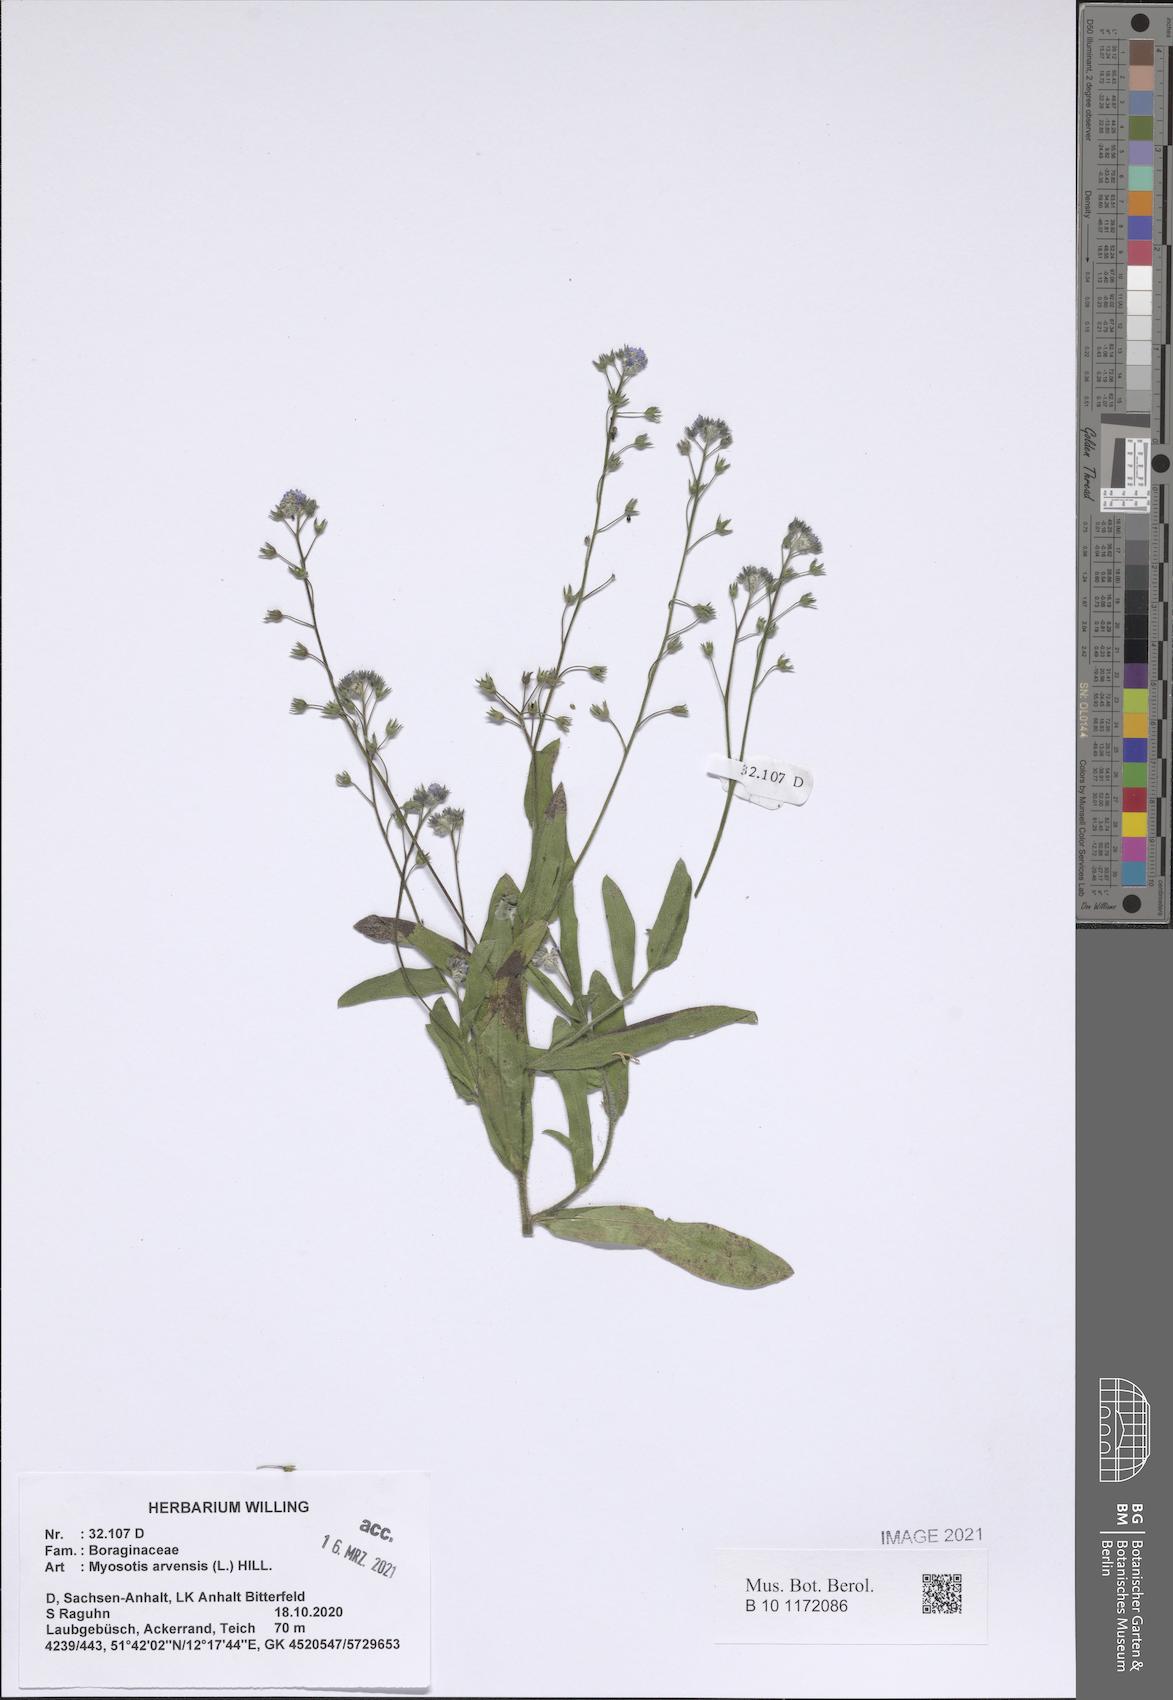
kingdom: Plantae
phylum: Tracheophyta
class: Magnoliopsida
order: Boraginales
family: Boraginaceae
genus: Myosotis
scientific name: Myosotis arvensis
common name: Field forget-me-not
